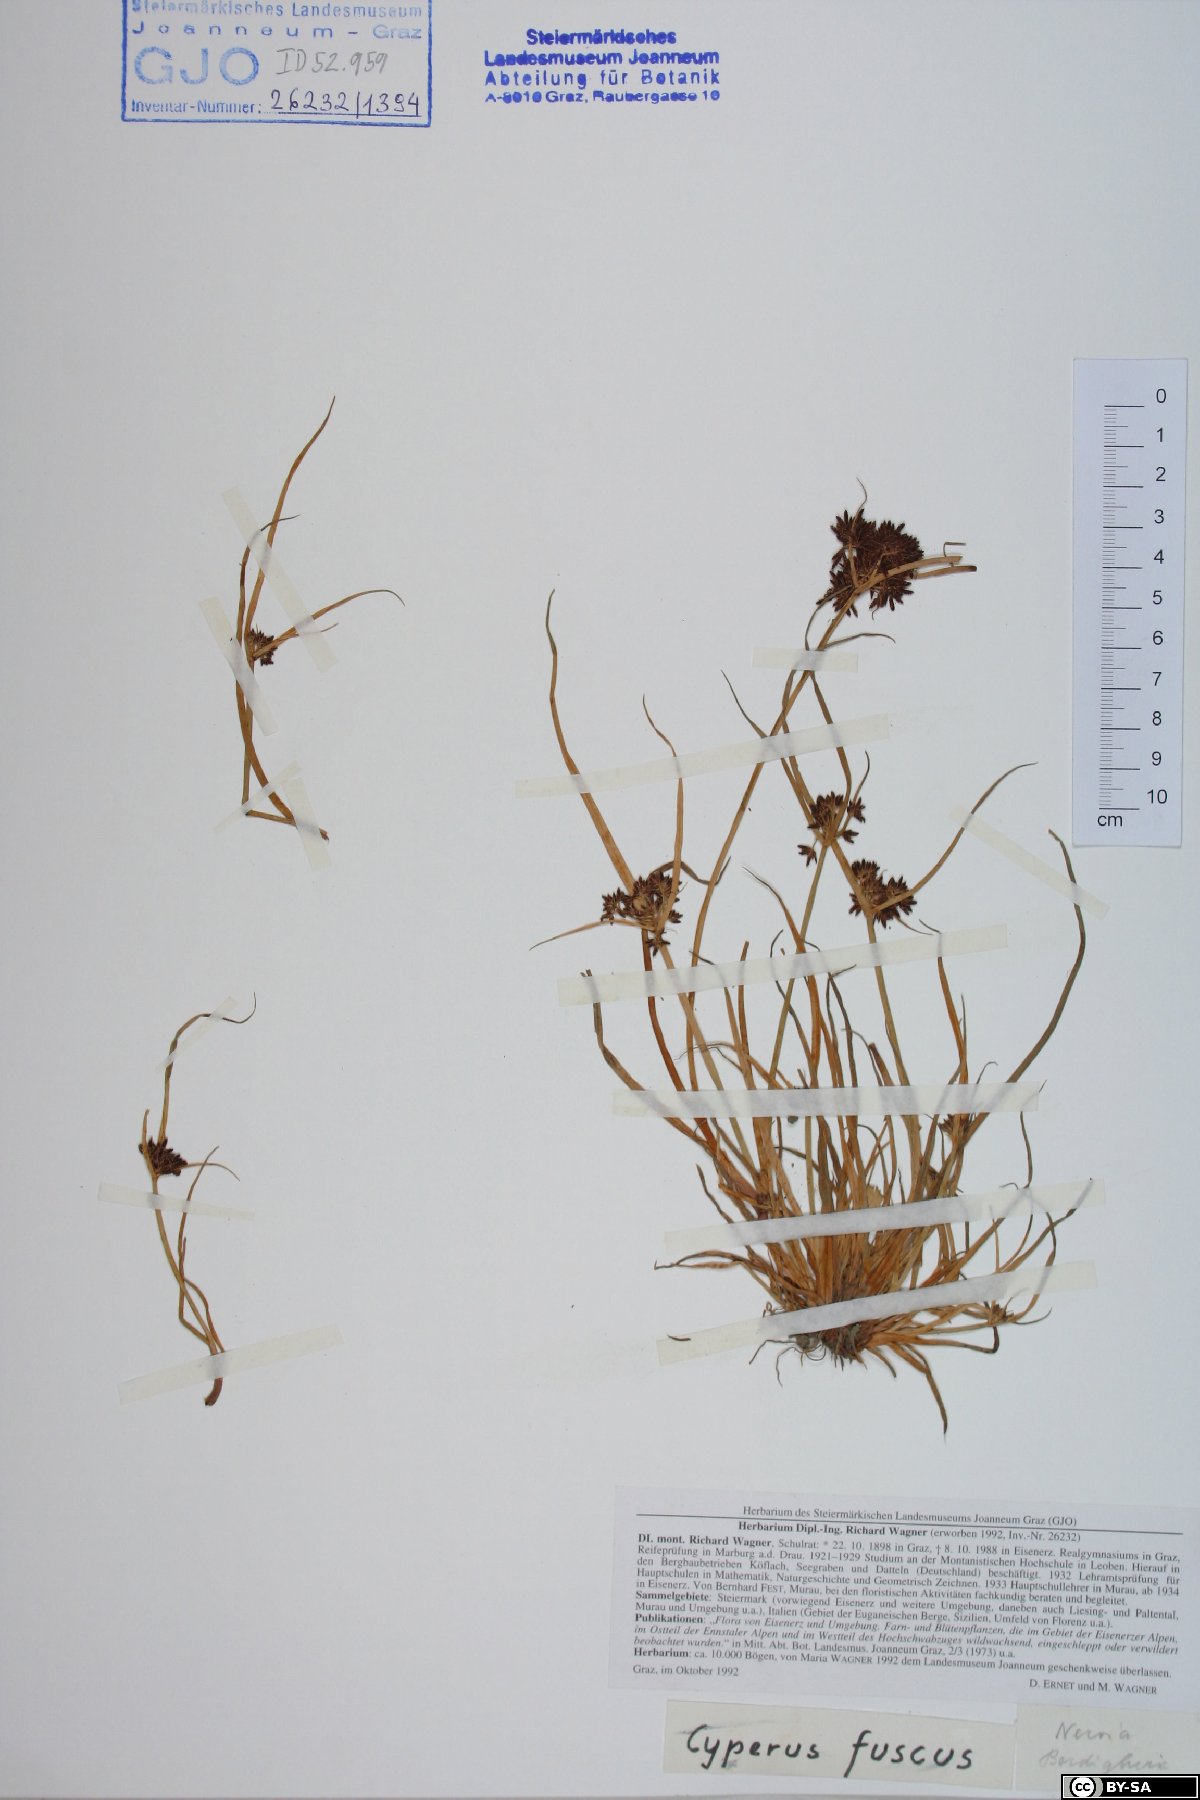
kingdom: Plantae
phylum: Tracheophyta
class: Liliopsida
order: Poales
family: Cyperaceae
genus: Cyperus
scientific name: Cyperus fuscus
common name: Brown galingale
